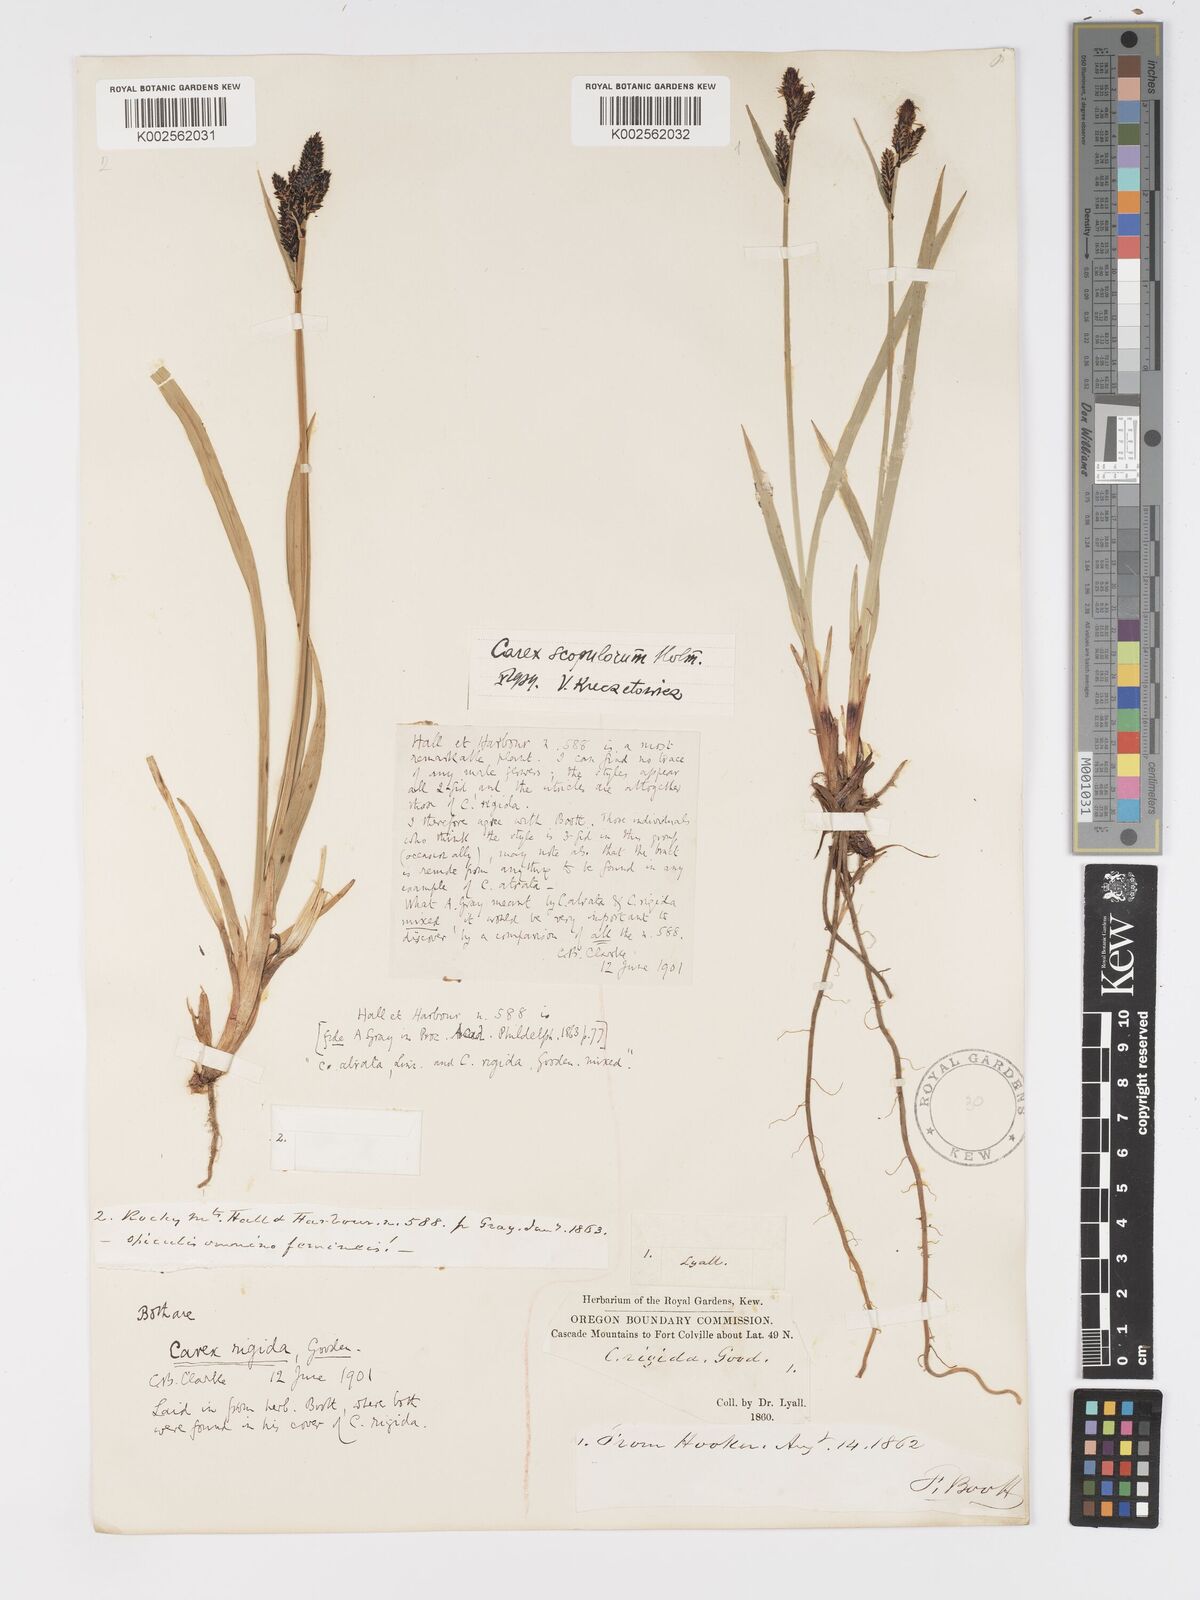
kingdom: Plantae
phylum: Tracheophyta
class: Liliopsida
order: Poales
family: Cyperaceae
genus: Carex
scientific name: Carex scopulorum
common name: Holm's rocky mountain sedge
